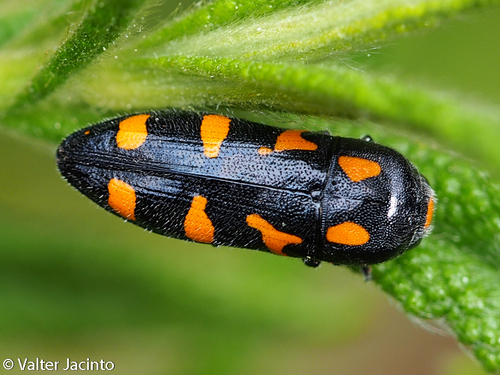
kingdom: Animalia
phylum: Arthropoda
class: Insecta
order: Coleoptera
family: Buprestidae
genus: Ptosima
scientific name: Ptosima undecimmaculata
